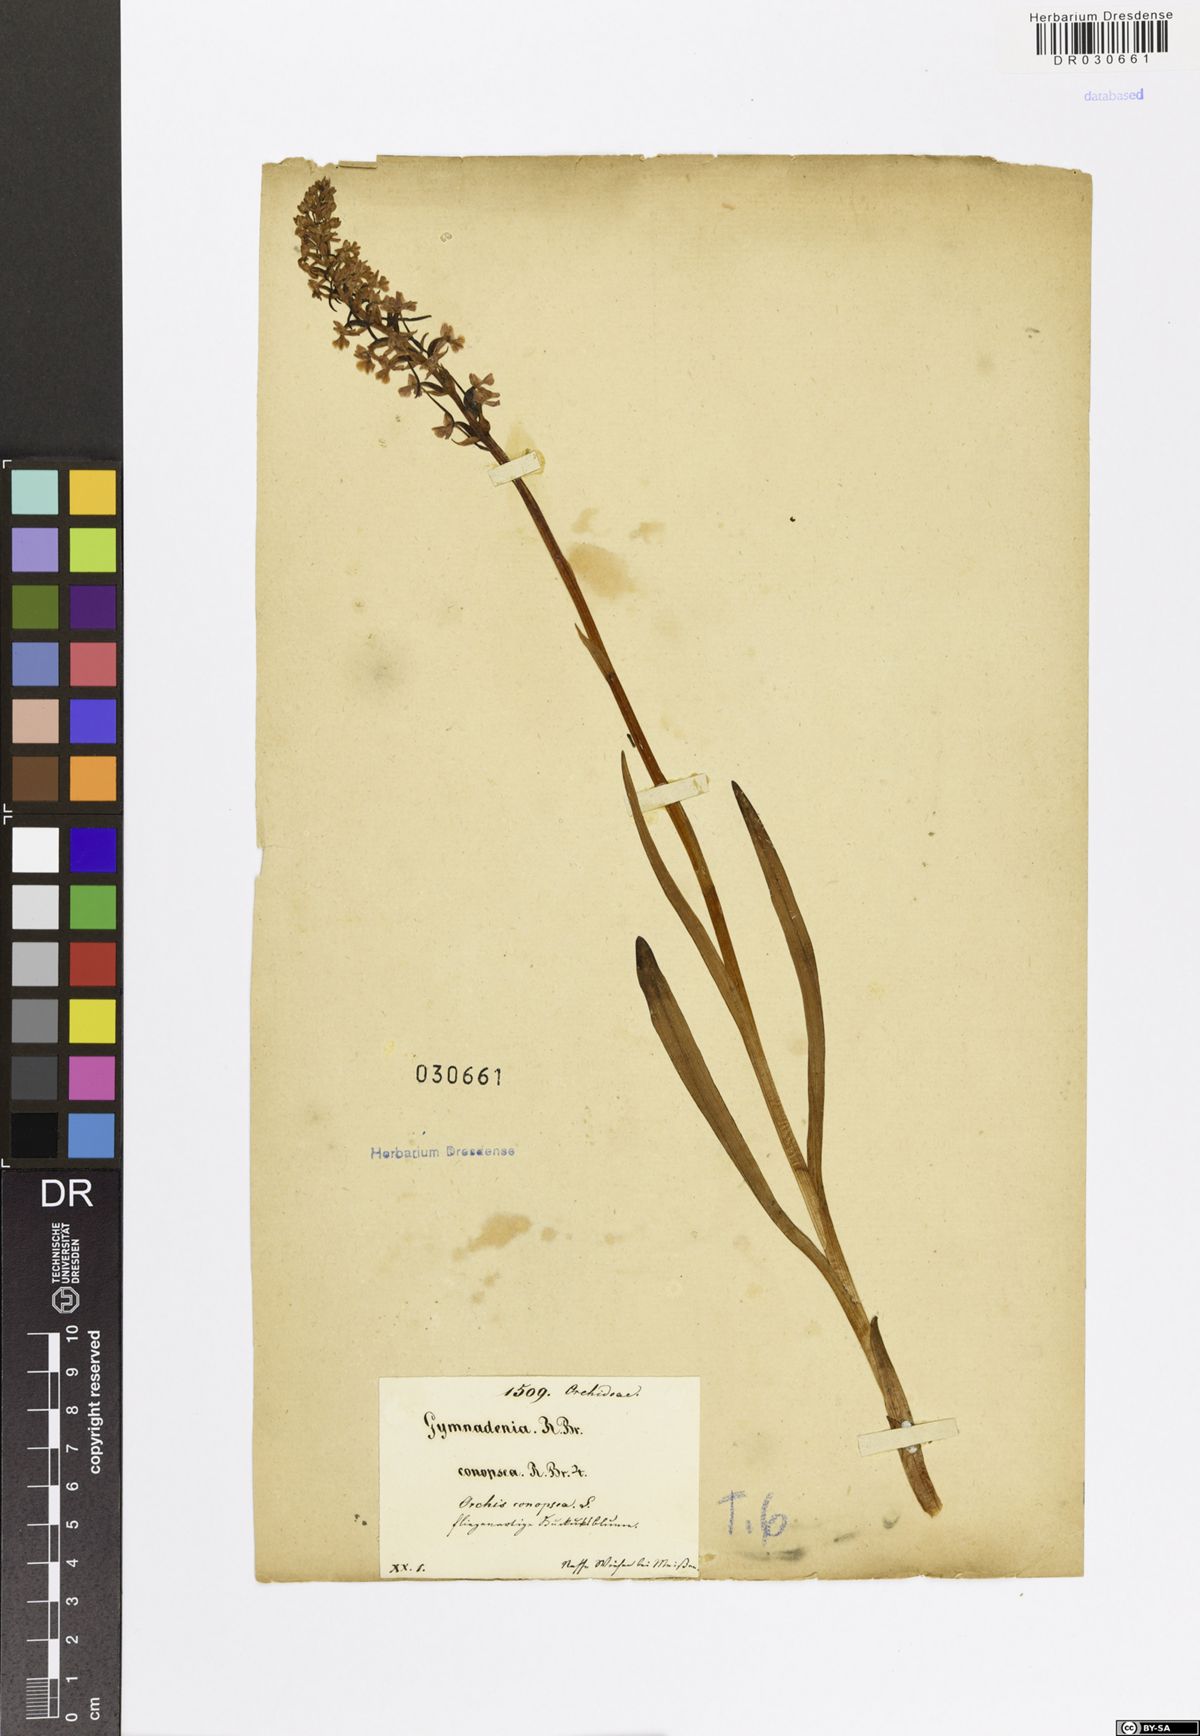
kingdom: Plantae
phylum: Tracheophyta
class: Liliopsida
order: Asparagales
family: Orchidaceae
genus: Gymnadenia
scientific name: Gymnadenia conopsea
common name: Fragrant orchid
